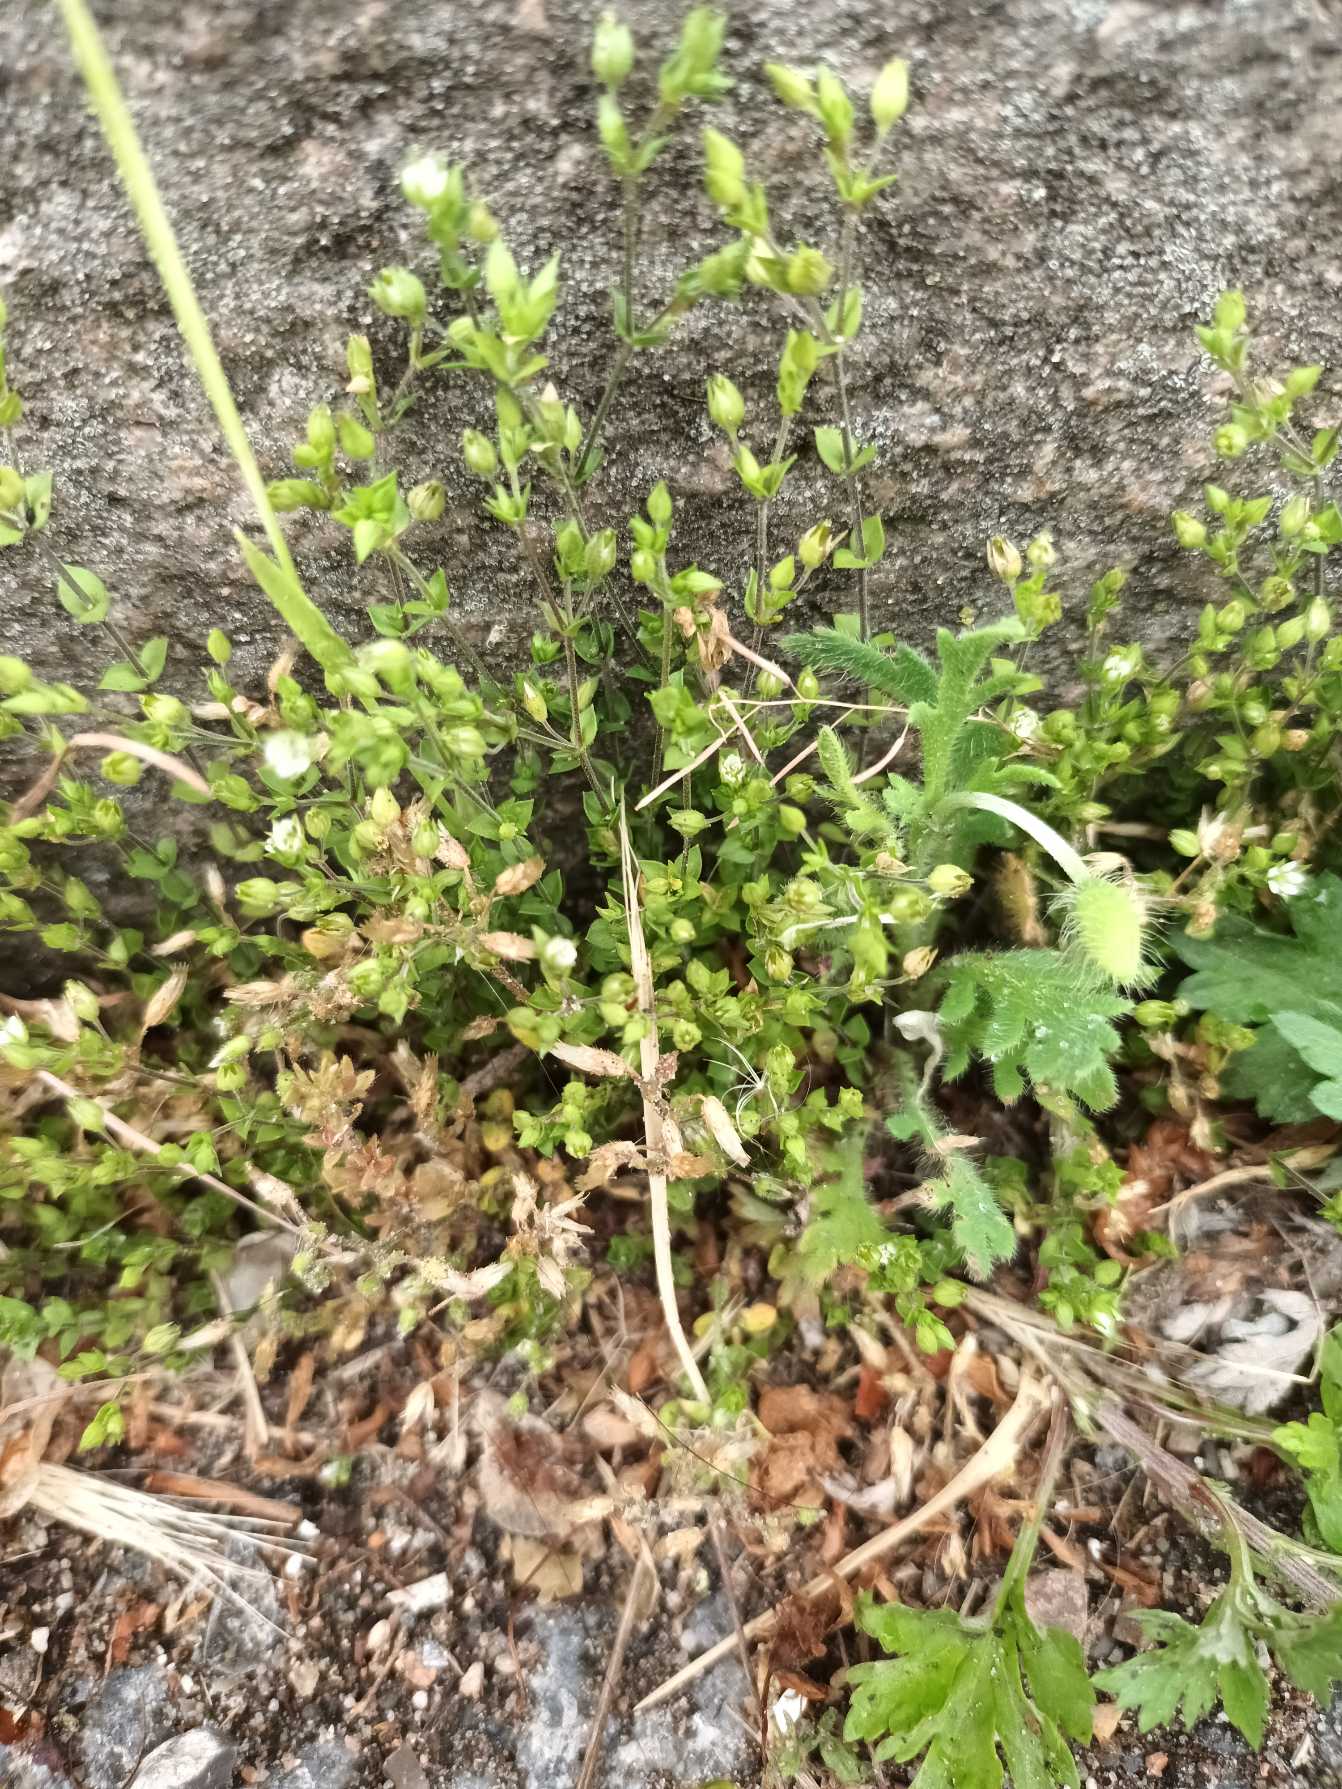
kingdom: Plantae
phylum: Tracheophyta
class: Magnoliopsida
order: Caryophyllales
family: Caryophyllaceae
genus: Arenaria
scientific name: Arenaria serpyllifolia
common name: Almindelig markarve
